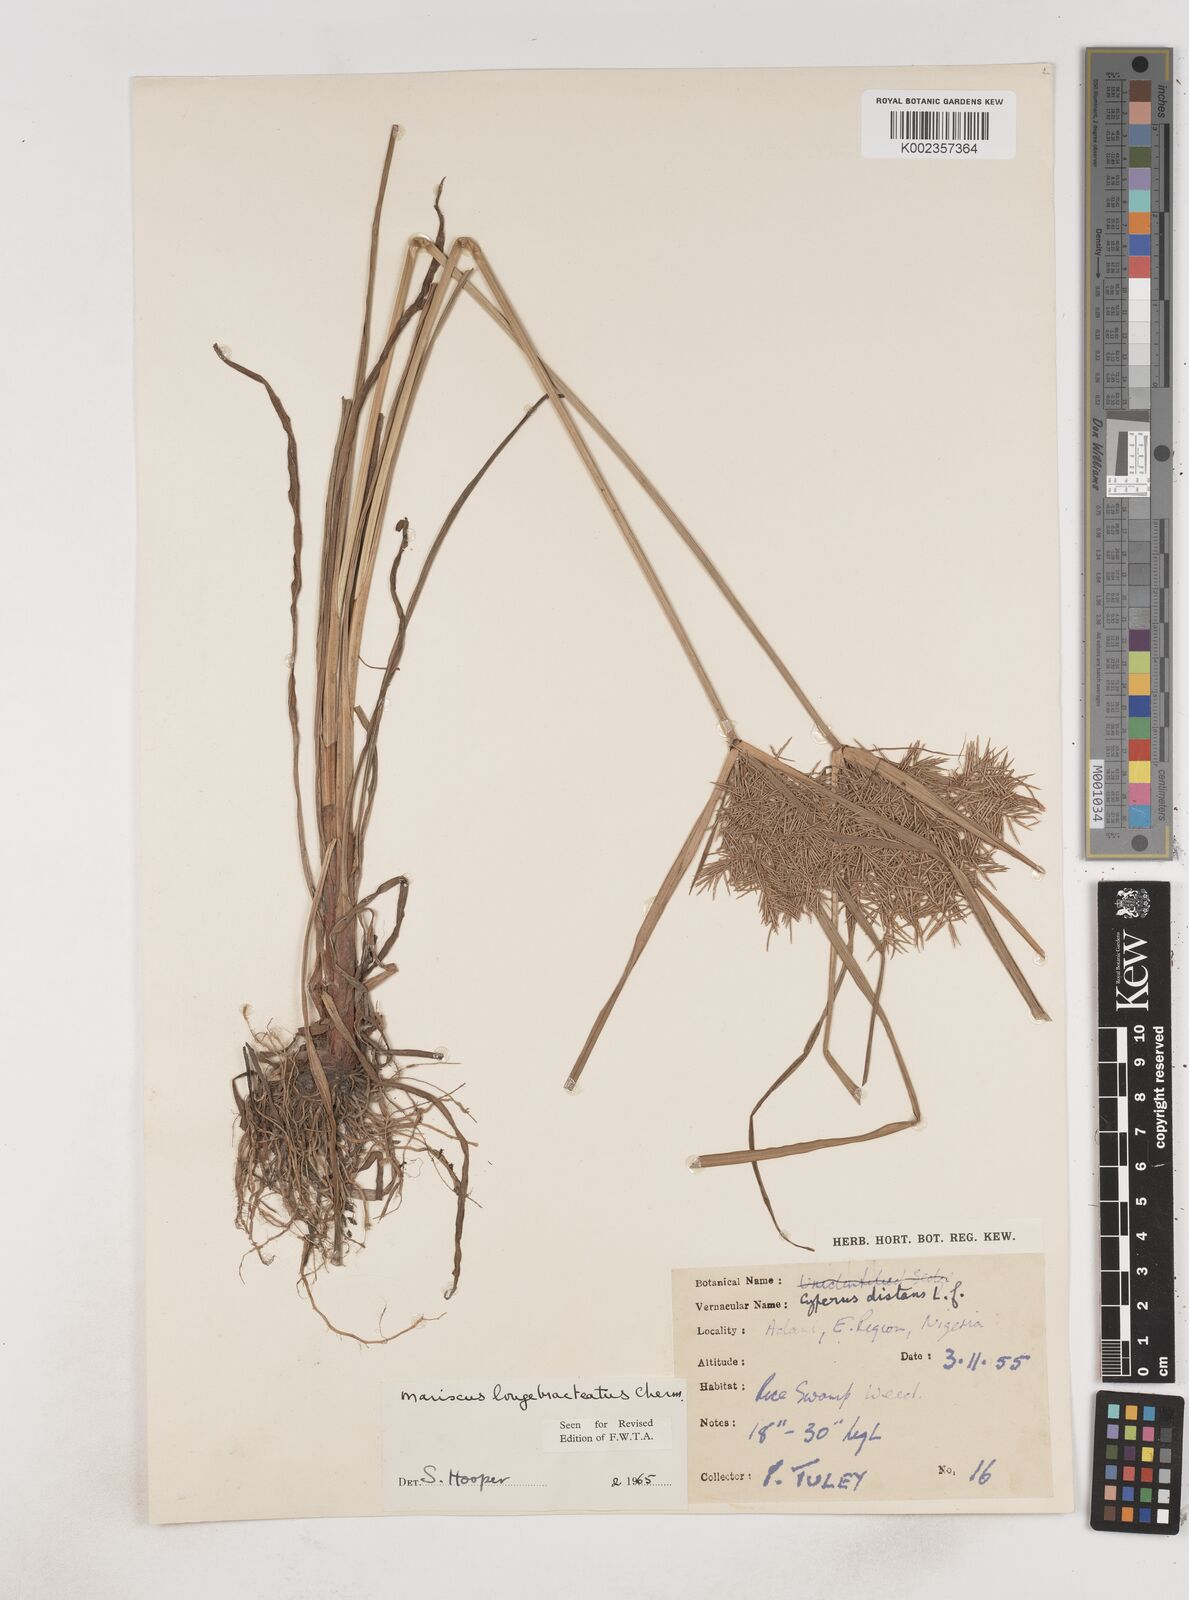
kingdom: Plantae
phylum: Tracheophyta
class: Liliopsida
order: Poales
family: Cyperaceae
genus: Cyperus
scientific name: Cyperus distans
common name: Slender cyperus
